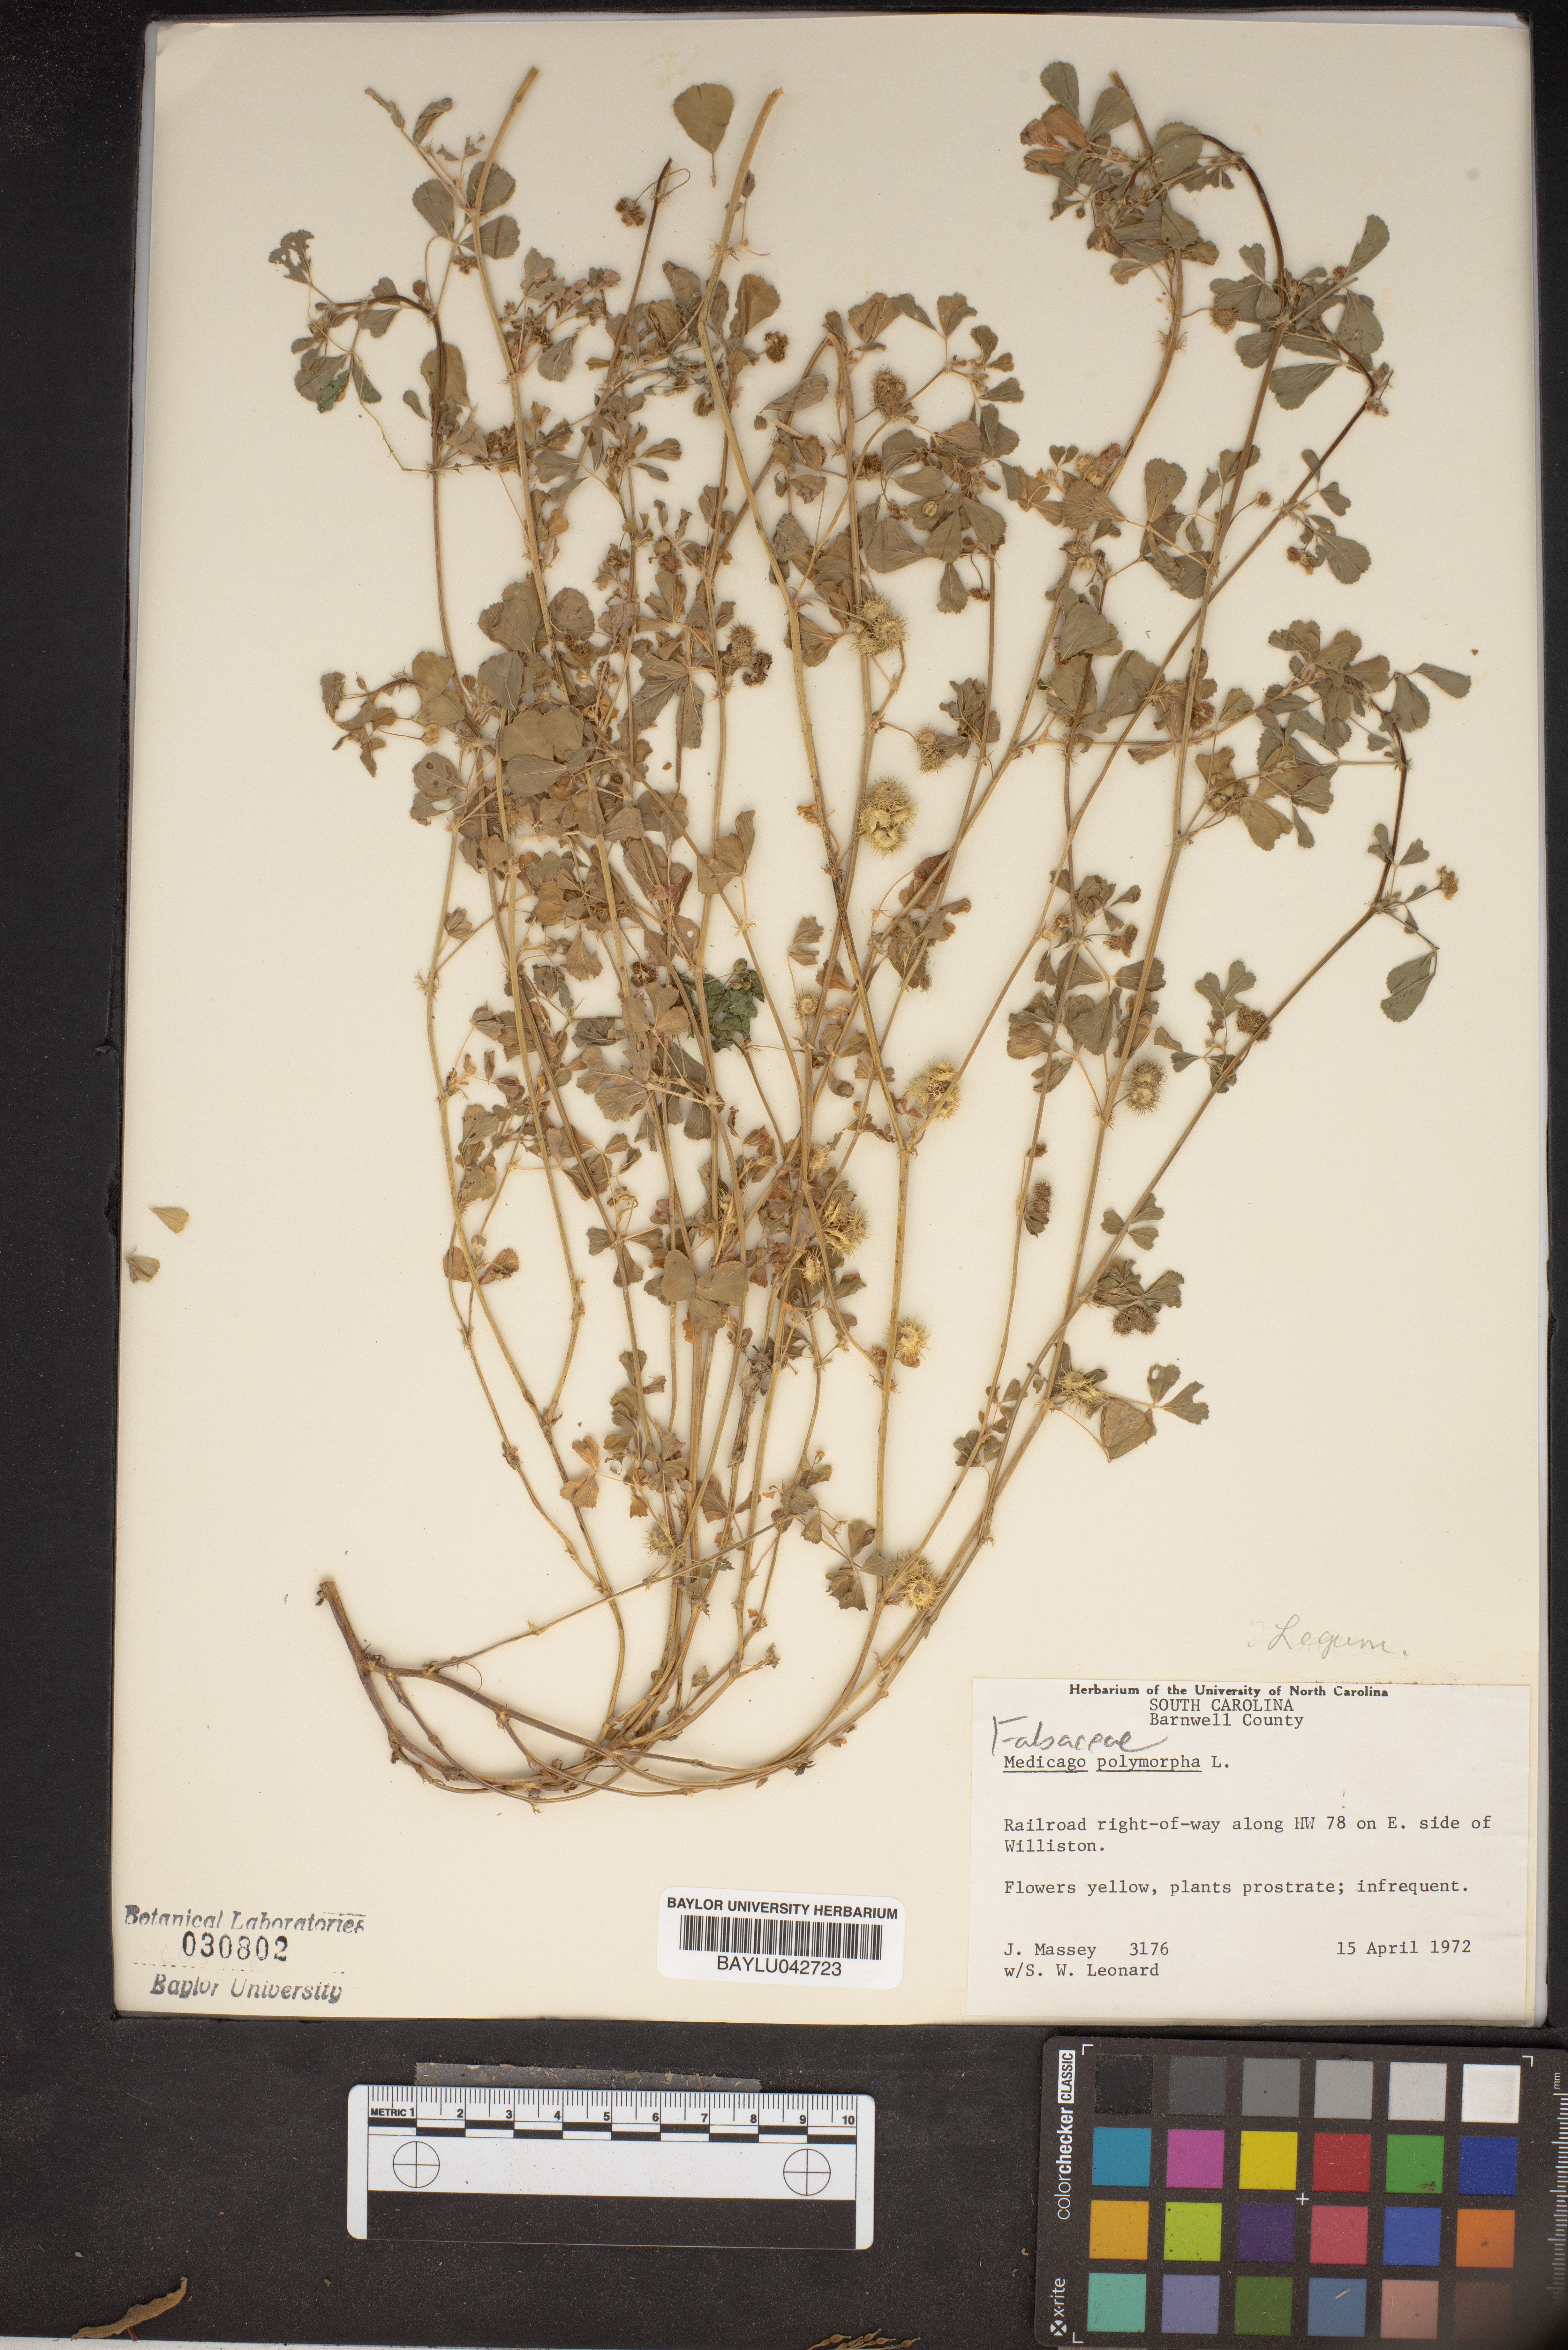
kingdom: Plantae
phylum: Tracheophyta
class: Magnoliopsida
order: Fabales
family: Fabaceae
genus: Medicago
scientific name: Medicago polymorpha
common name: Burclover
